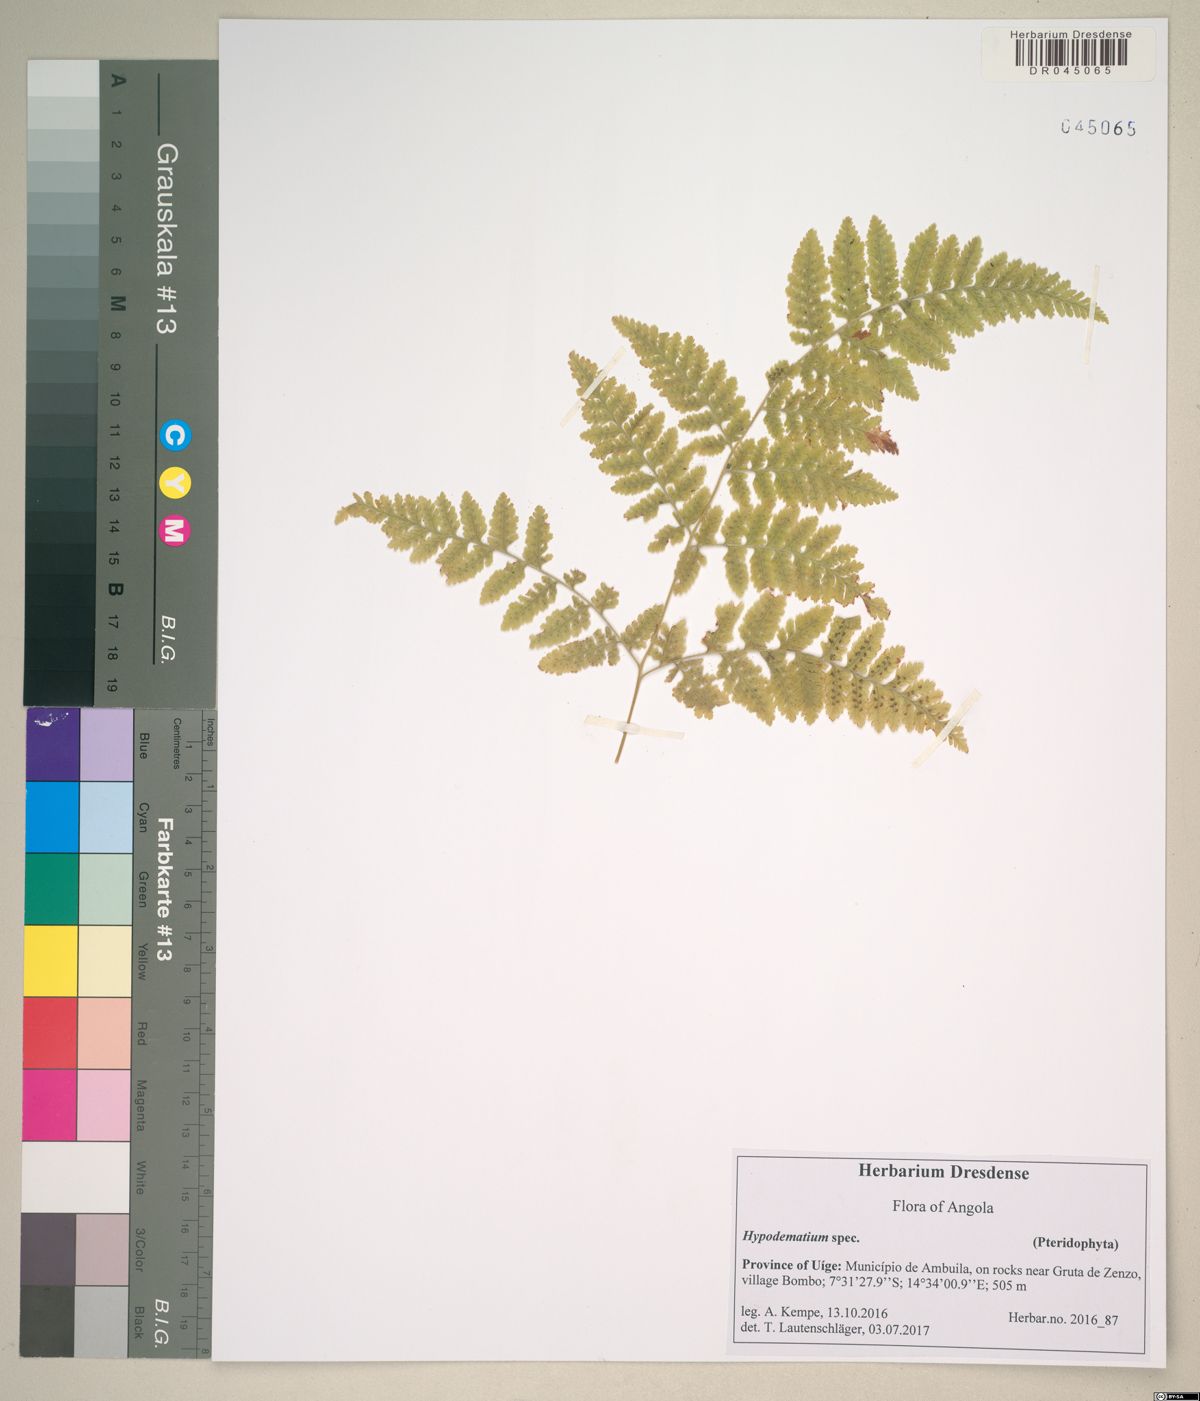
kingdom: Plantae
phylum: Tracheophyta
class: Polypodiopsida
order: Polypodiales
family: Hypodematiaceae
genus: Hypodematium
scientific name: Hypodematium
